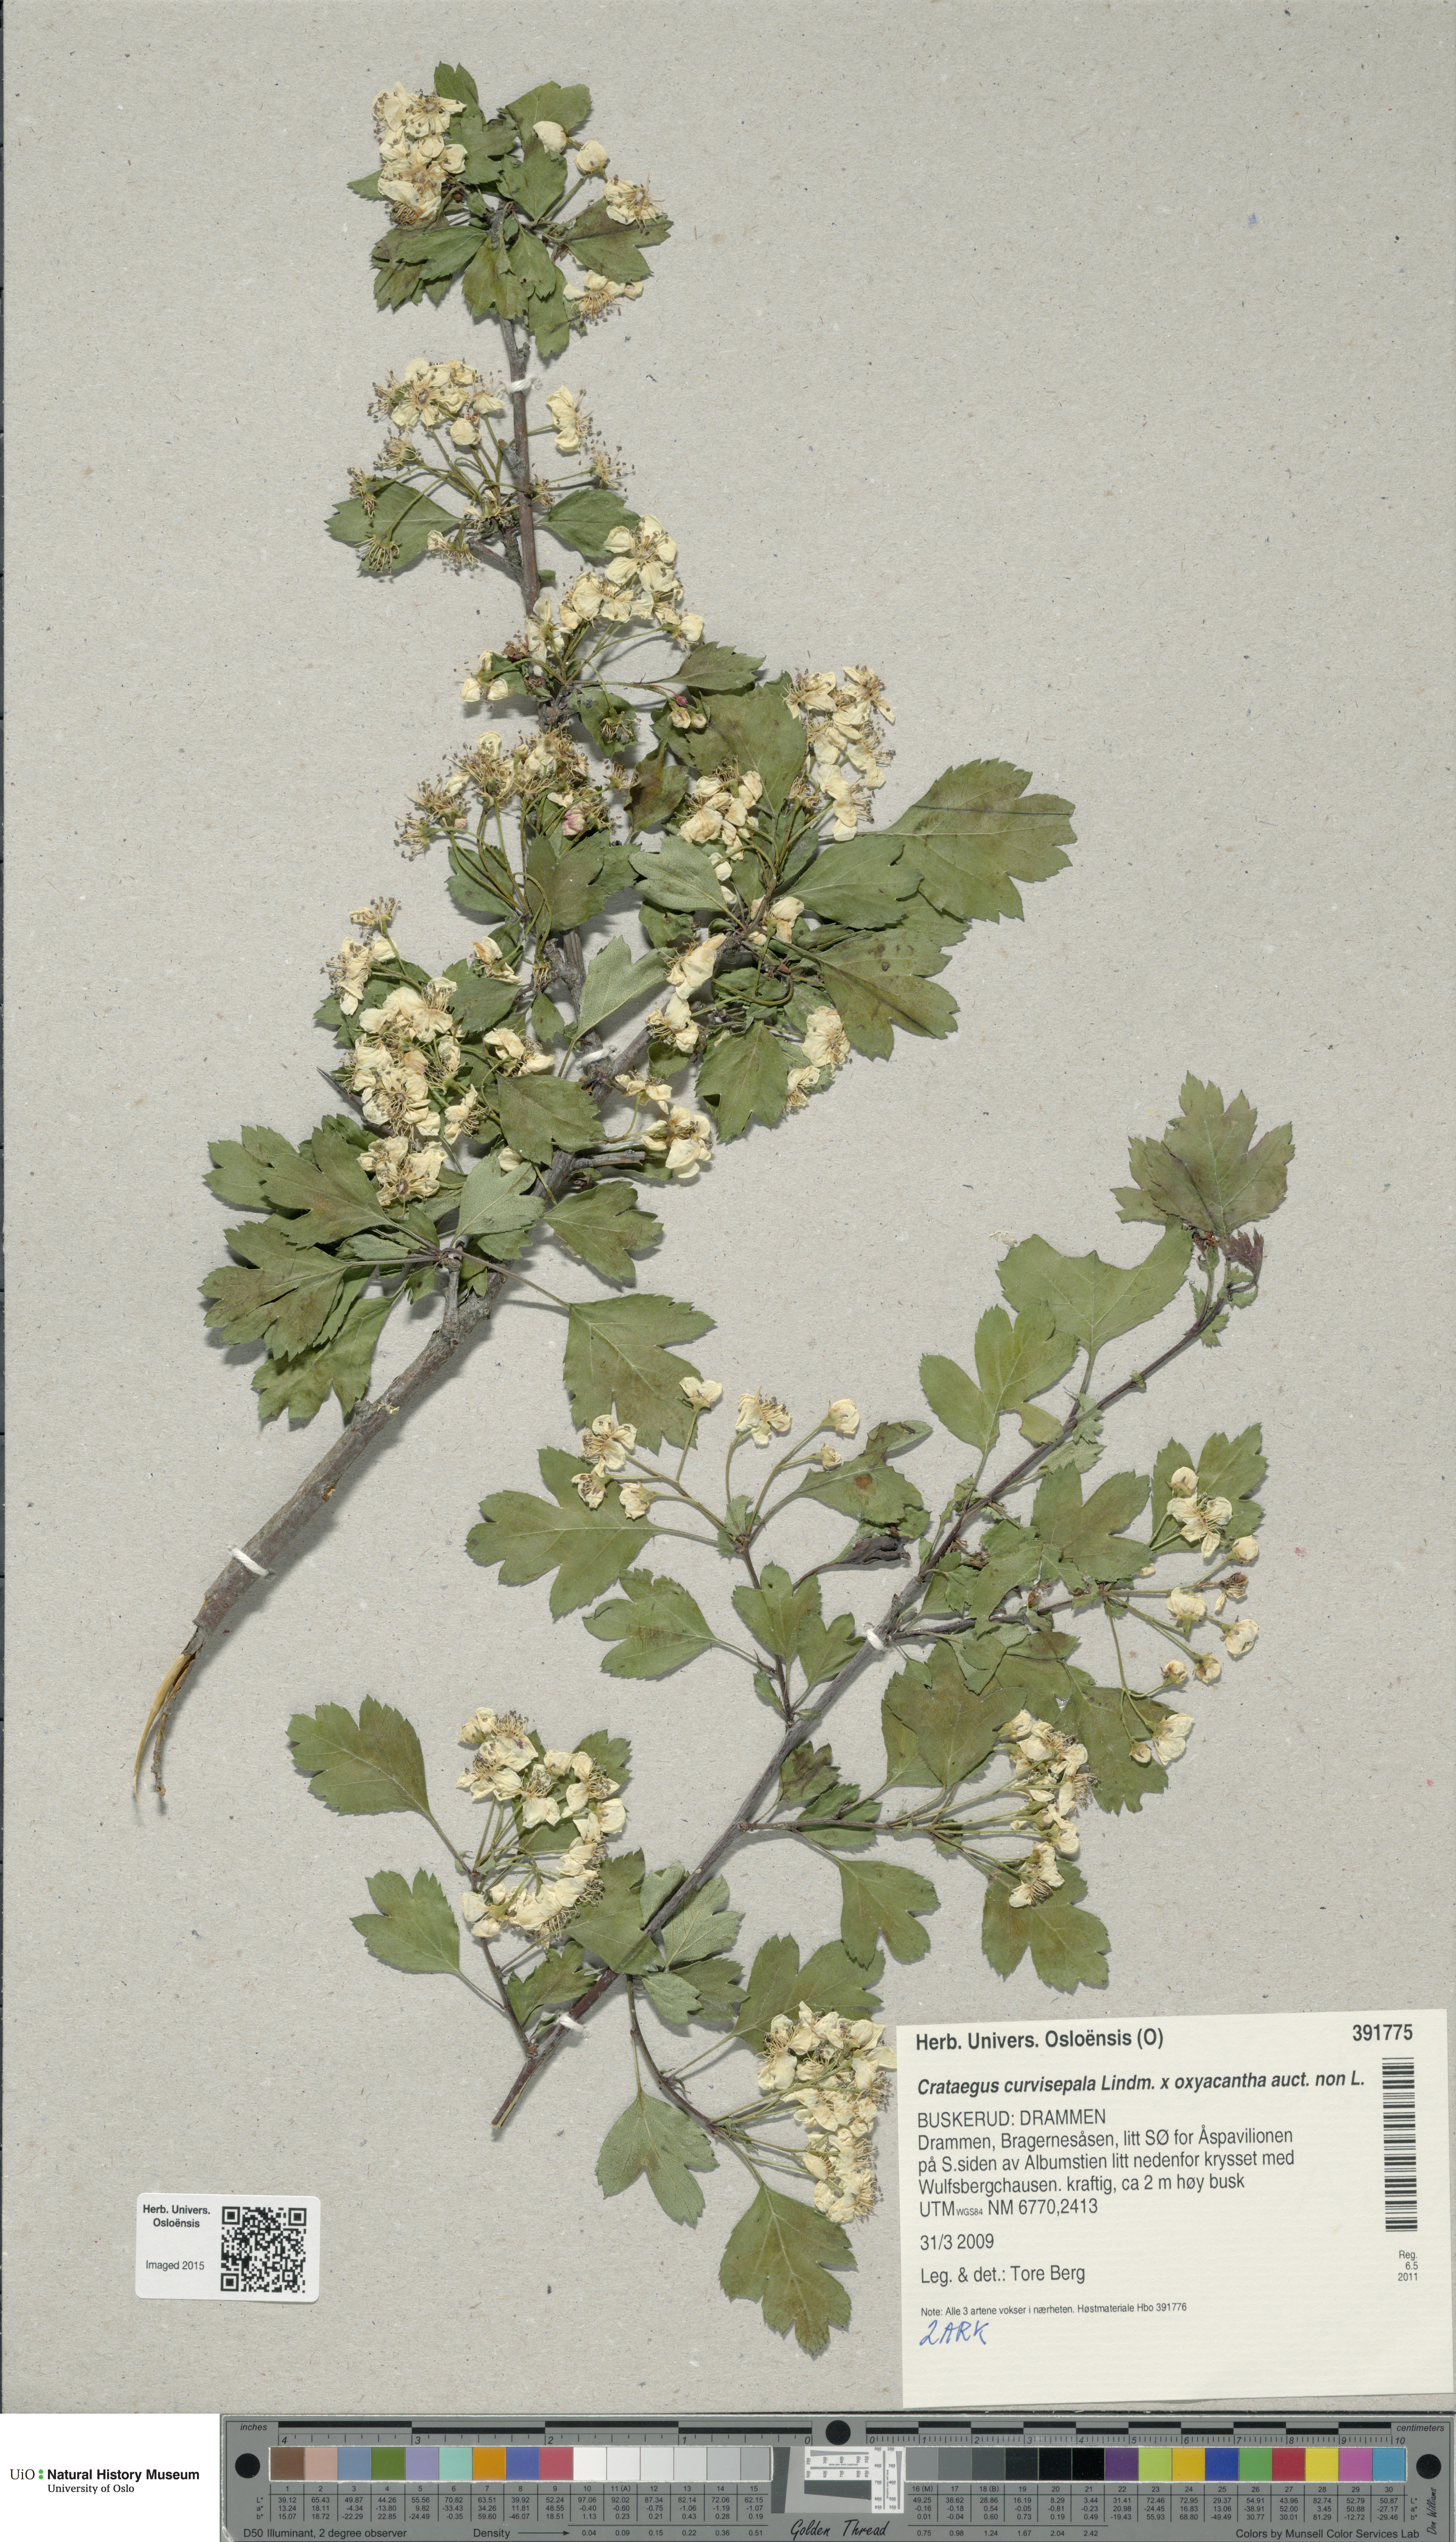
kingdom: Plantae
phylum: Tracheophyta
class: Magnoliopsida
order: Rosales
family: Rosaceae
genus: Crataegus
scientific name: Crataegus rhipidophylla
